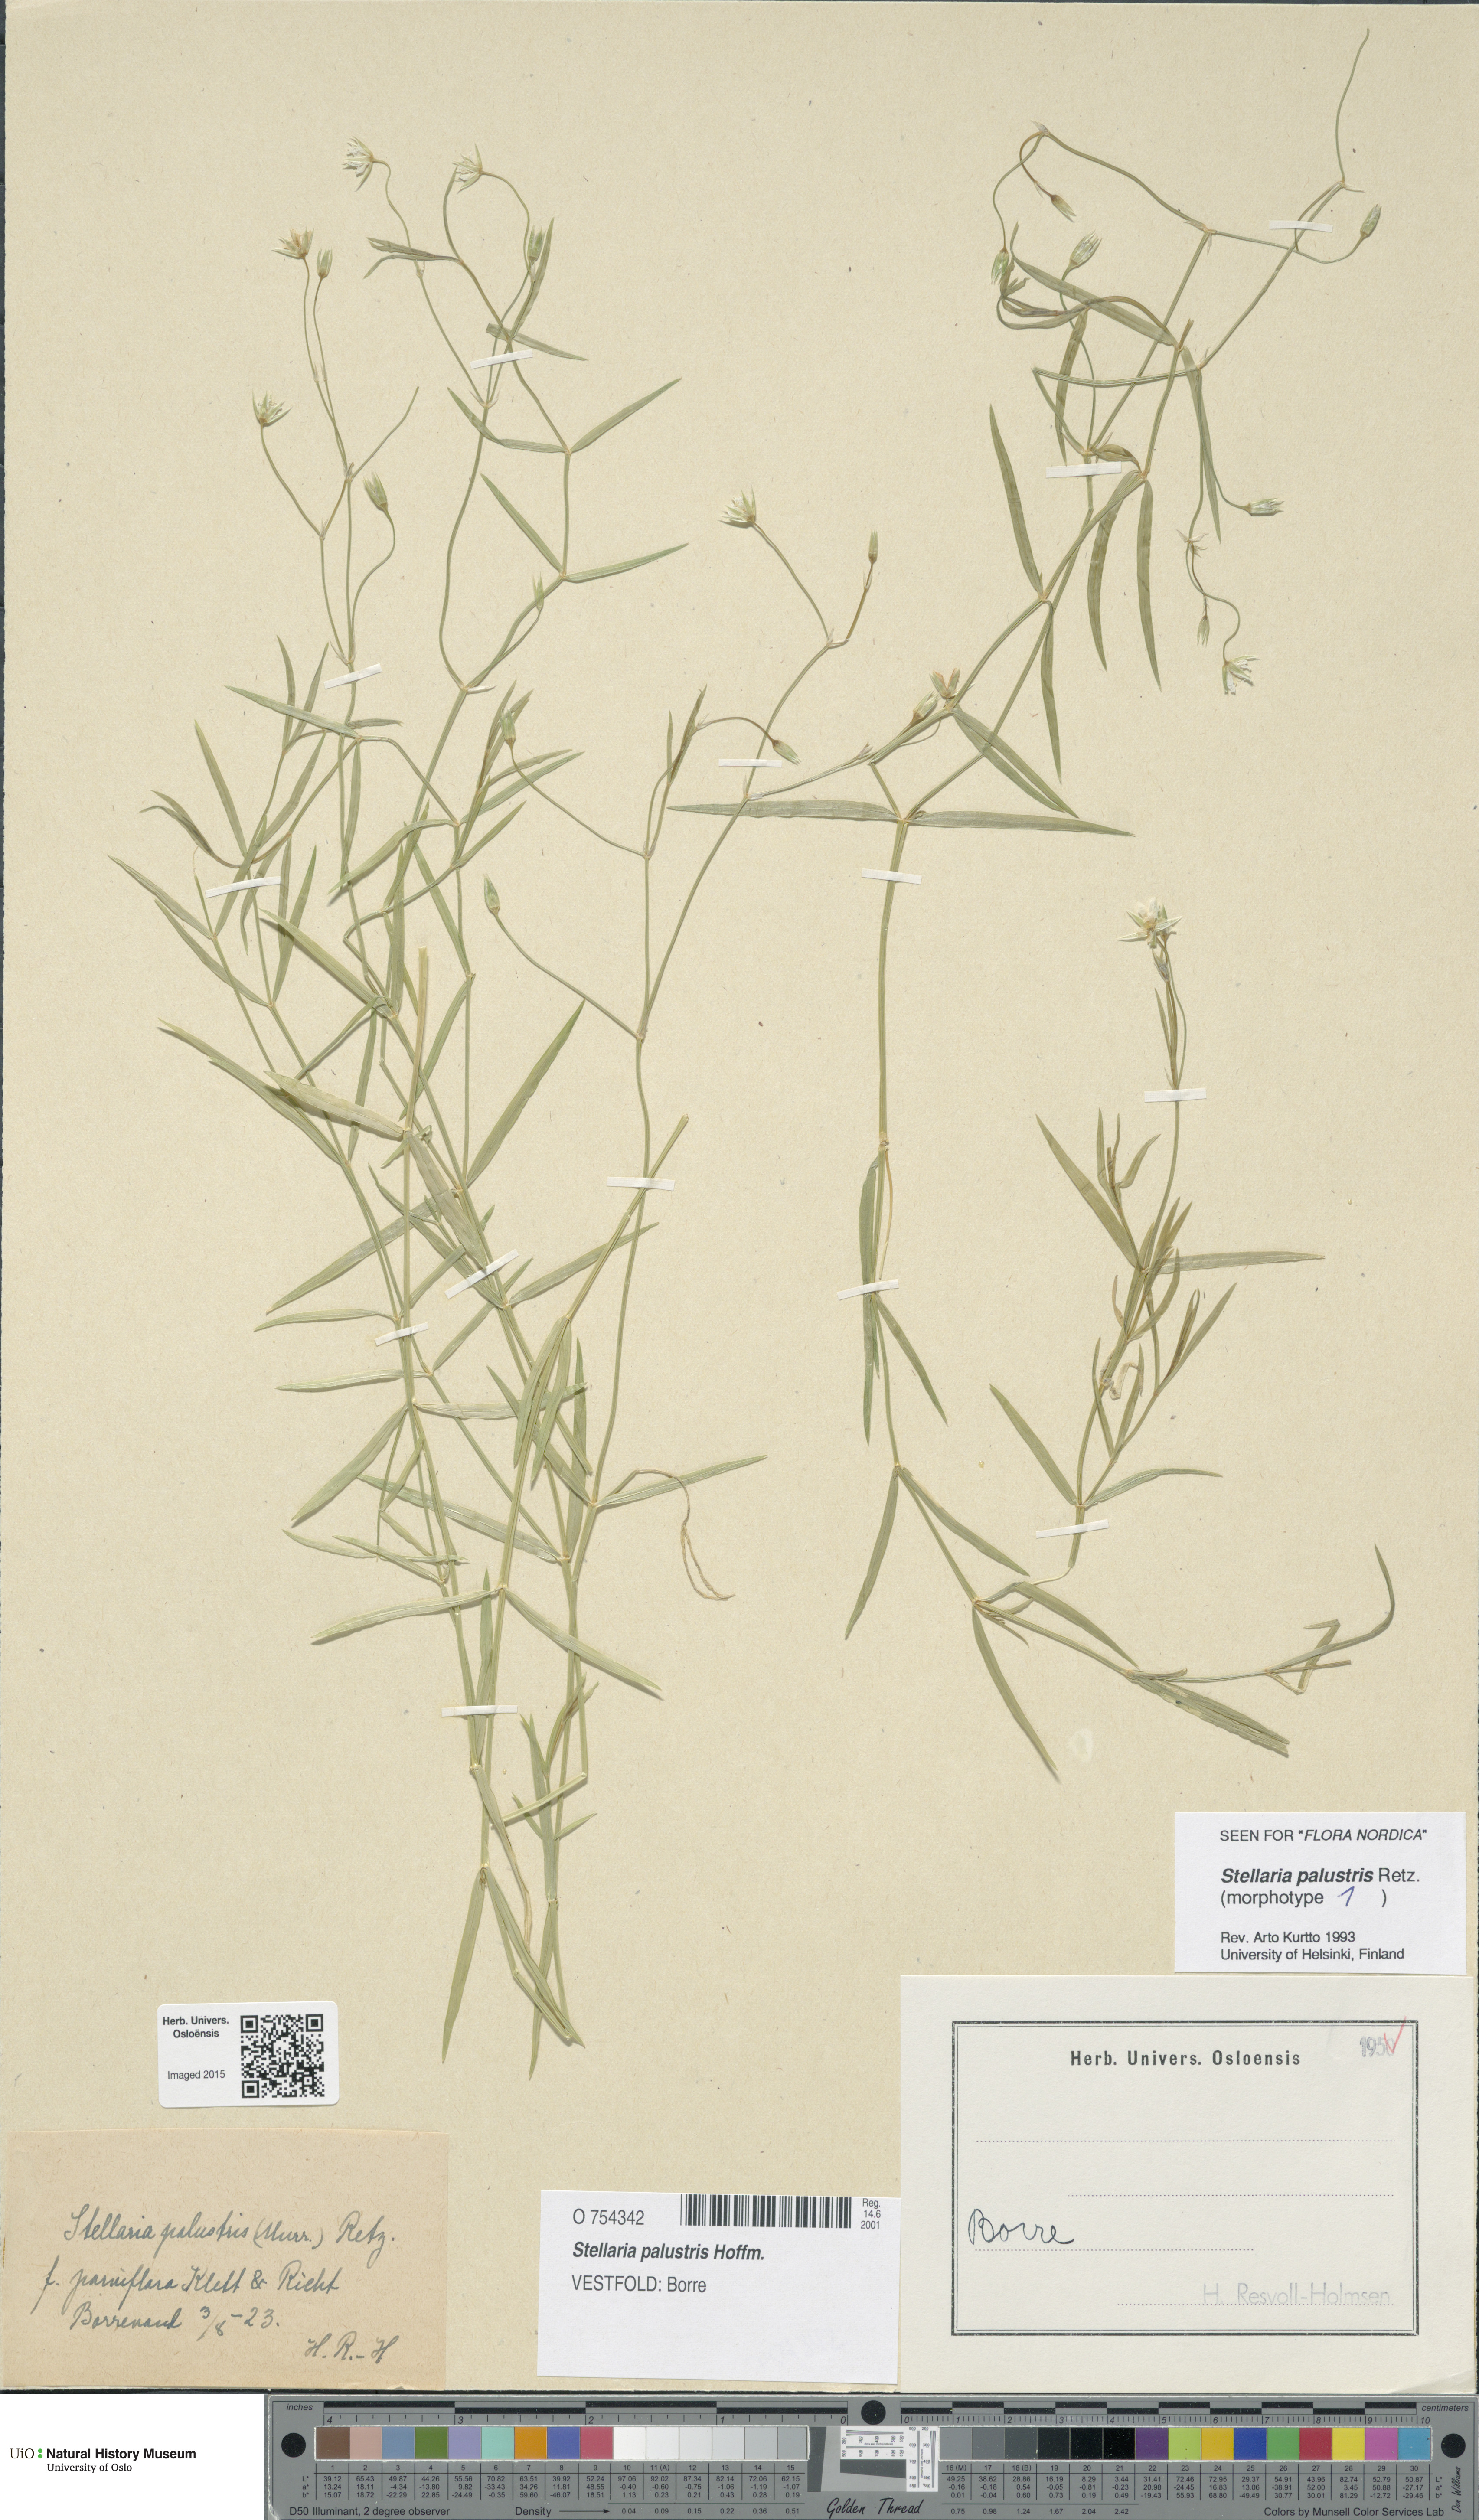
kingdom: Plantae
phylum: Tracheophyta
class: Magnoliopsida
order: Caryophyllales
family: Caryophyllaceae
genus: Stellaria
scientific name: Stellaria palustris
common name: Marsh stitchwort
